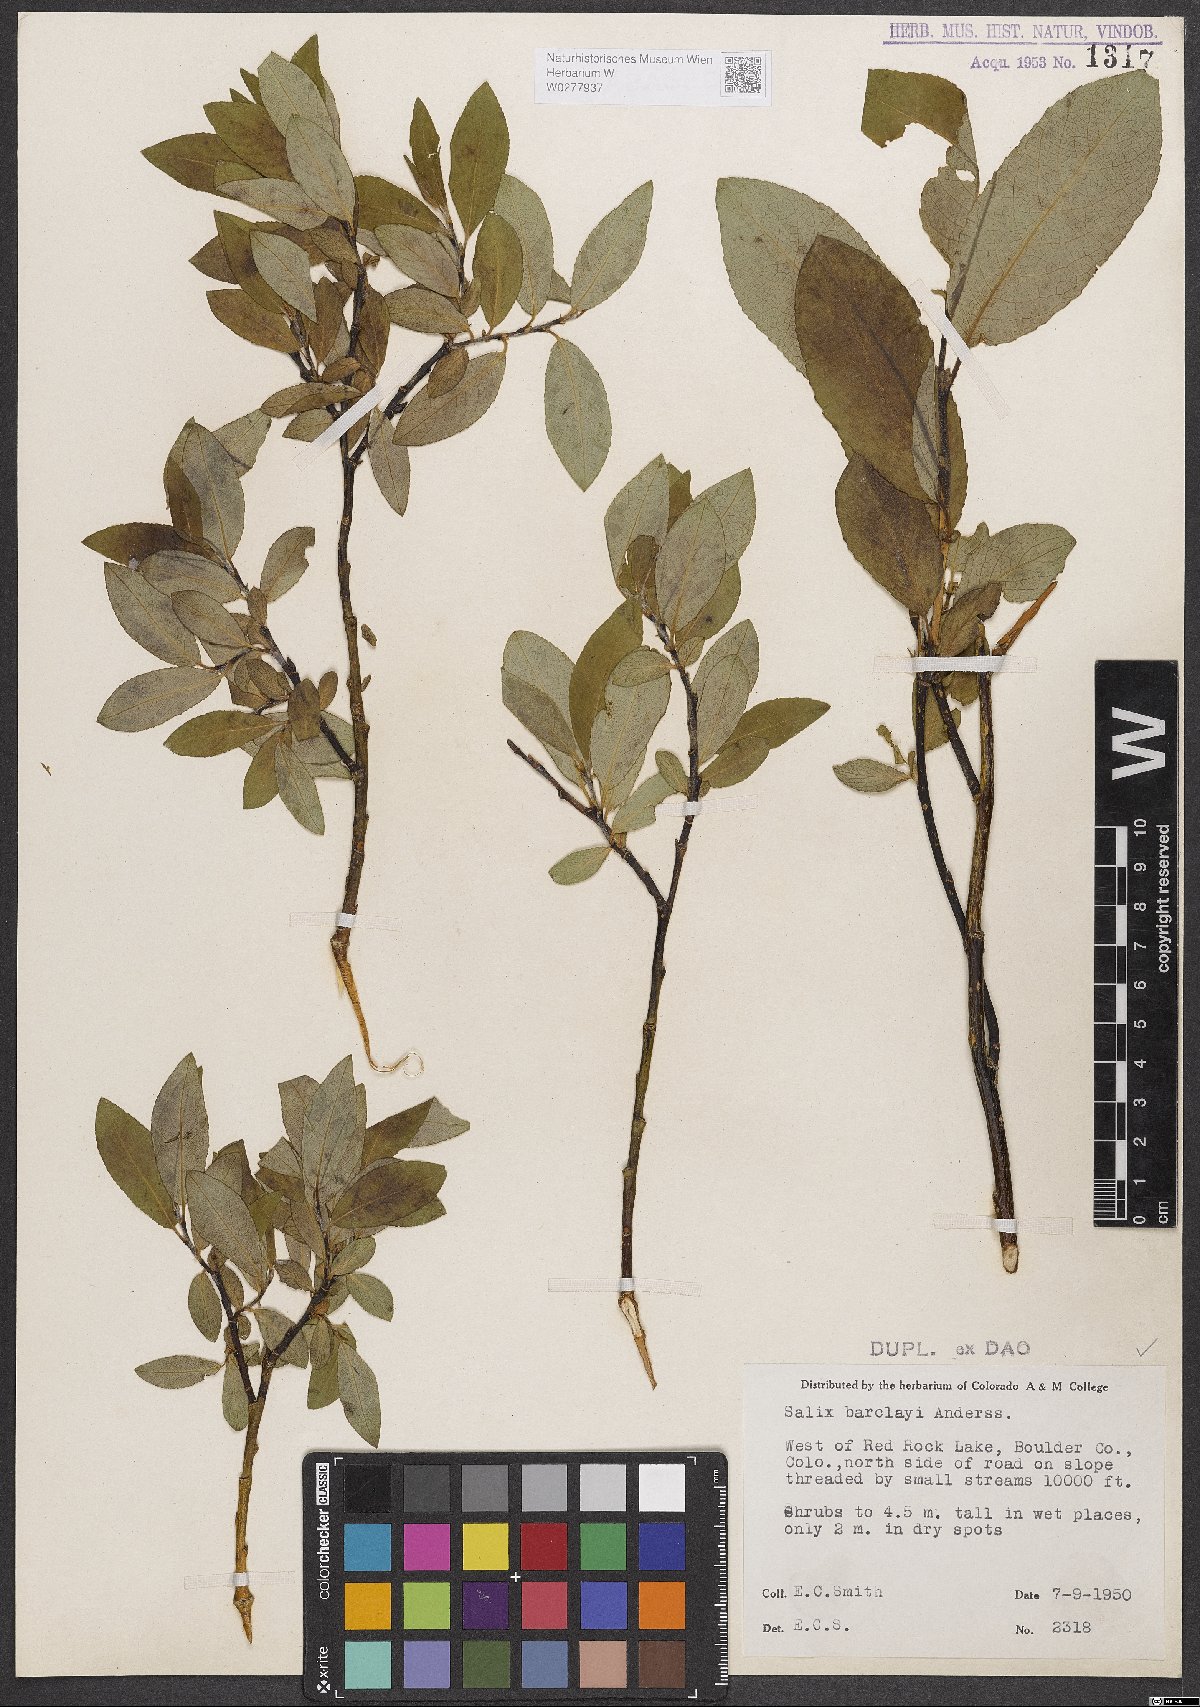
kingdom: Plantae
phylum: Tracheophyta
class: Magnoliopsida
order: Malpighiales
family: Salicaceae
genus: Salix
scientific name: Salix barclayi
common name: Mountain willow
